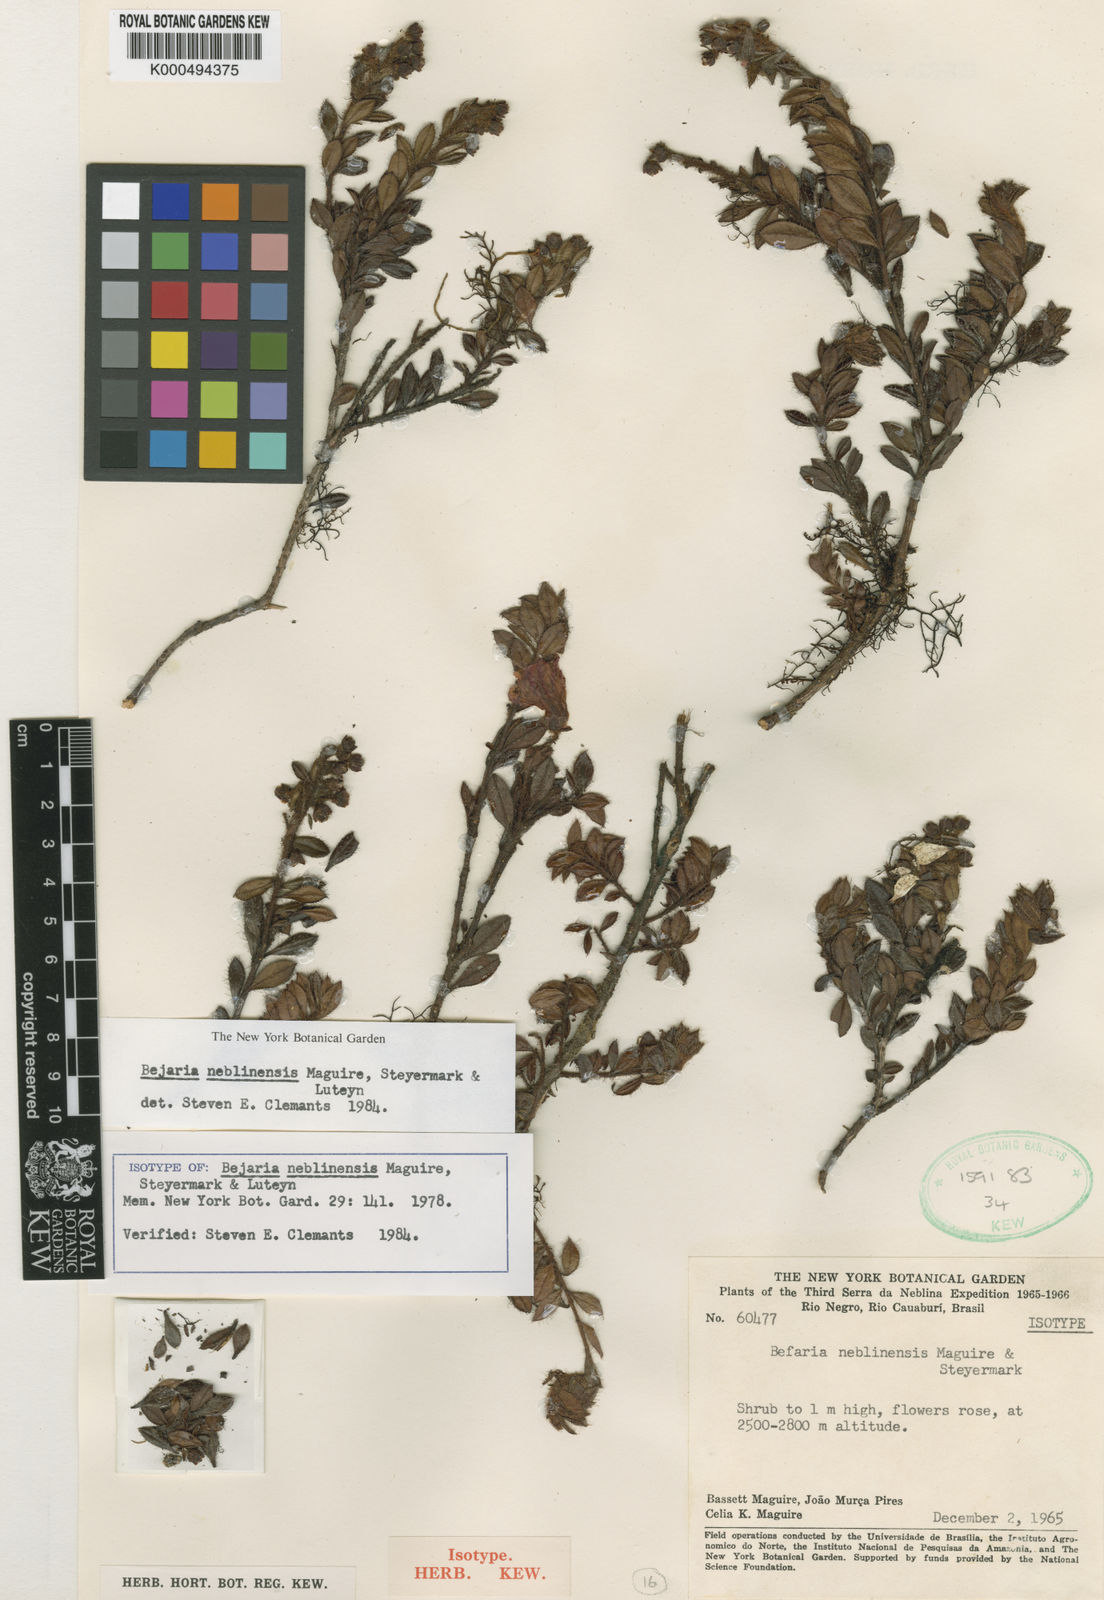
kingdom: Plantae
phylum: Tracheophyta
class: Magnoliopsida
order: Ericales
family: Ericaceae
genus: Bejaria
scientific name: Bejaria neblinensis
